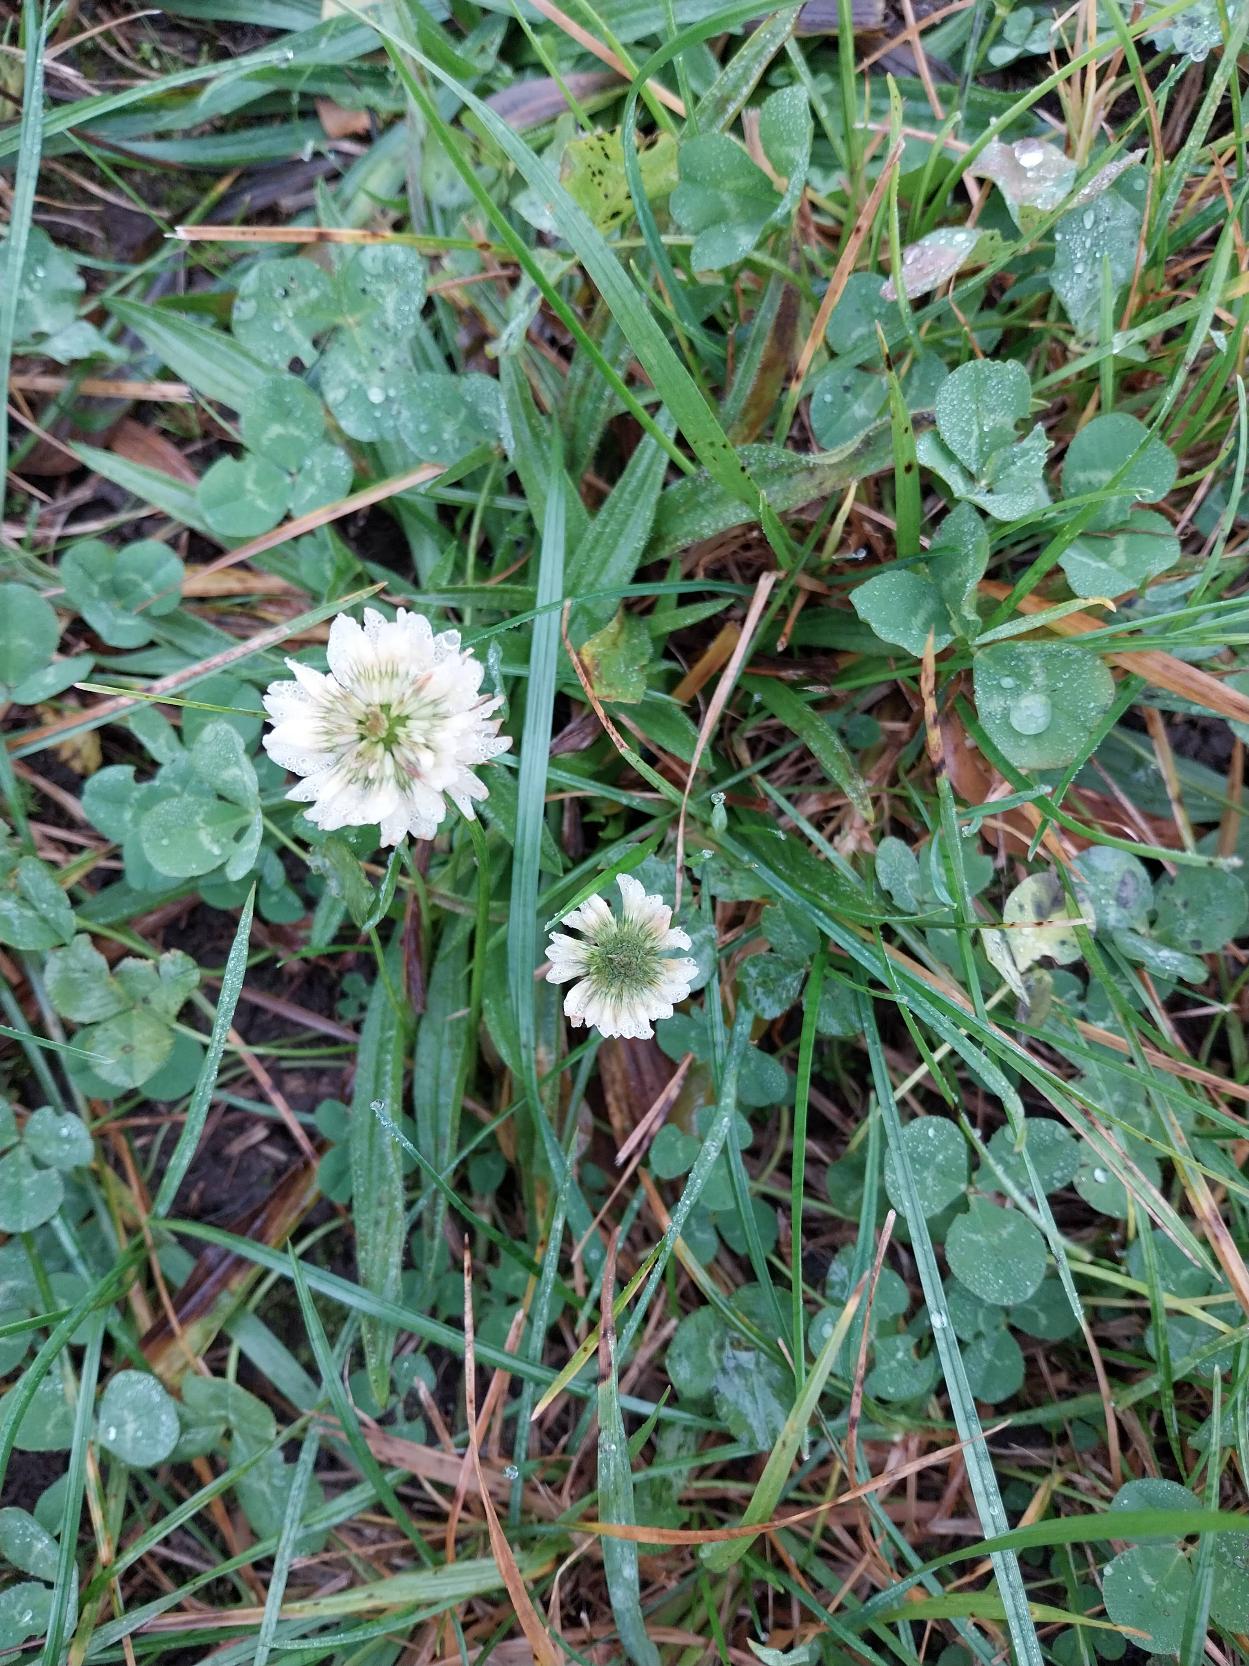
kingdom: Plantae
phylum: Tracheophyta
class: Magnoliopsida
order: Fabales
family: Fabaceae
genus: Trifolium
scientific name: Trifolium repens
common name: Hvid-kløver
